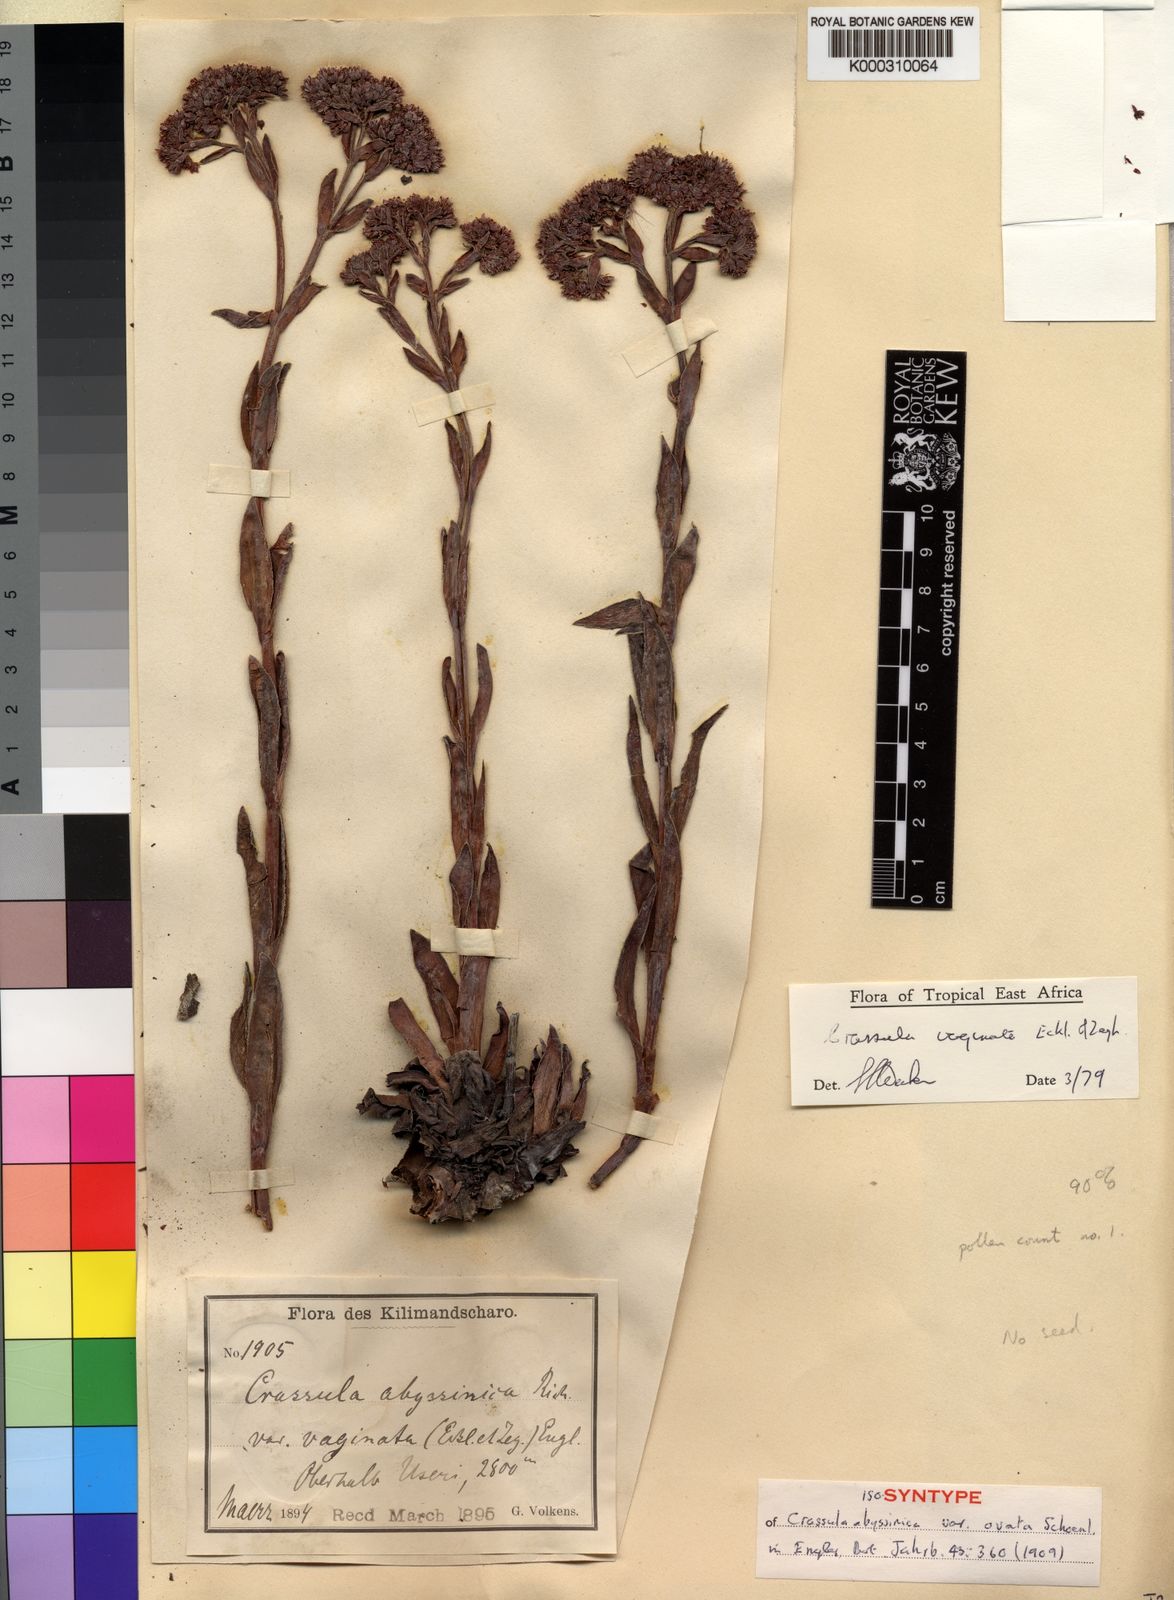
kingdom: Plantae
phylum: Tracheophyta
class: Magnoliopsida
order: Saxifragales
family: Crassulaceae
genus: Crassula
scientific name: Crassula vaginata
